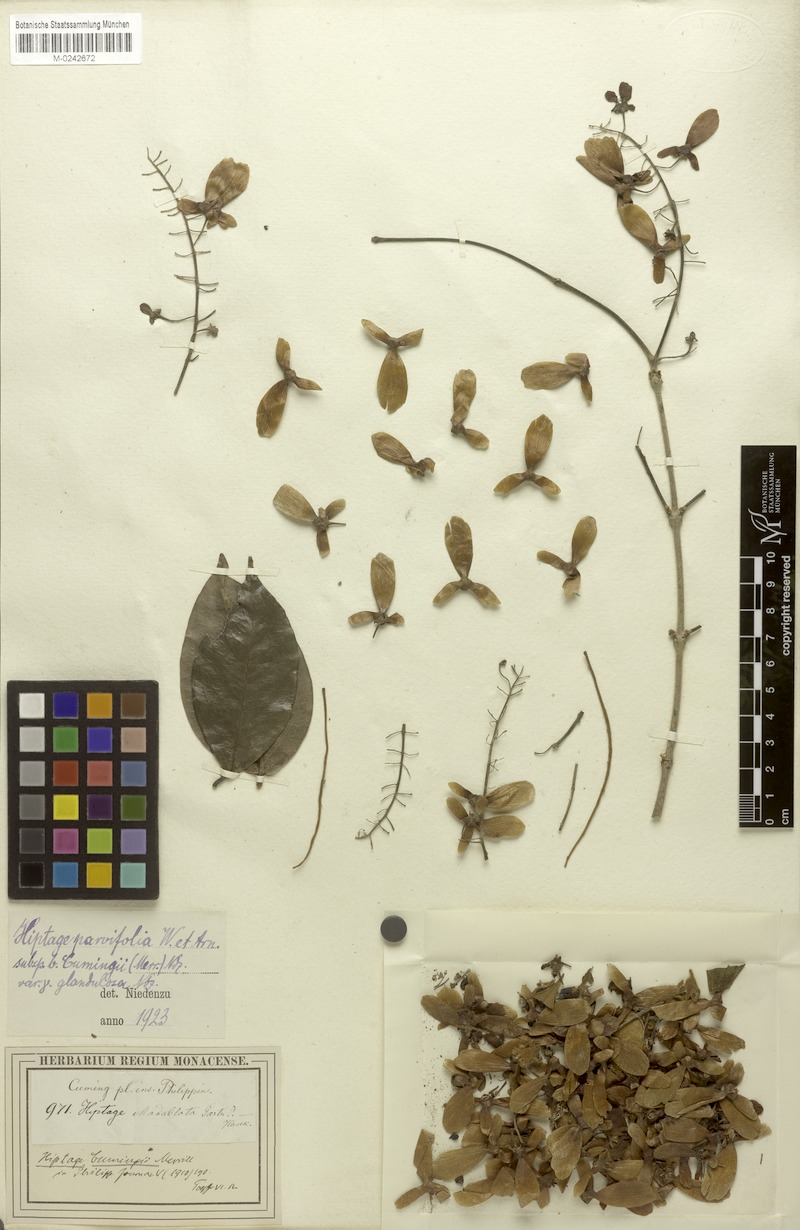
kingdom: Plantae
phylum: Tracheophyta
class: Magnoliopsida
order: Malpighiales
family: Malpighiaceae
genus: Hiptage
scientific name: Hiptage luzonica
